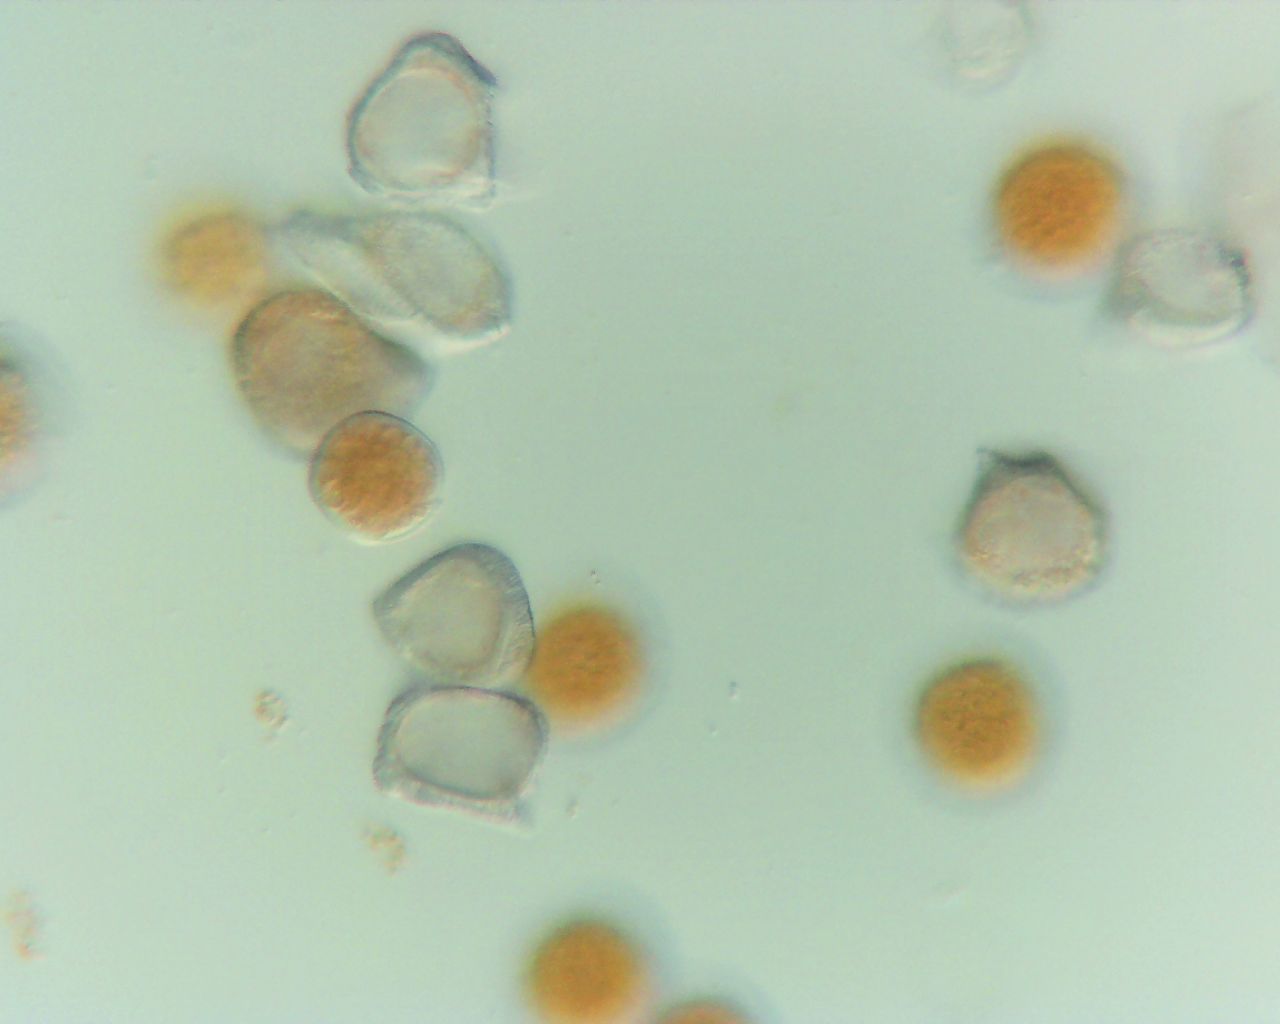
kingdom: Fungi
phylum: Basidiomycota
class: Pucciniomycetes
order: Pucciniales
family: Pucciniaceae
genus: Puccinia
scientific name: Puccinia sessilis
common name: Arum rust
